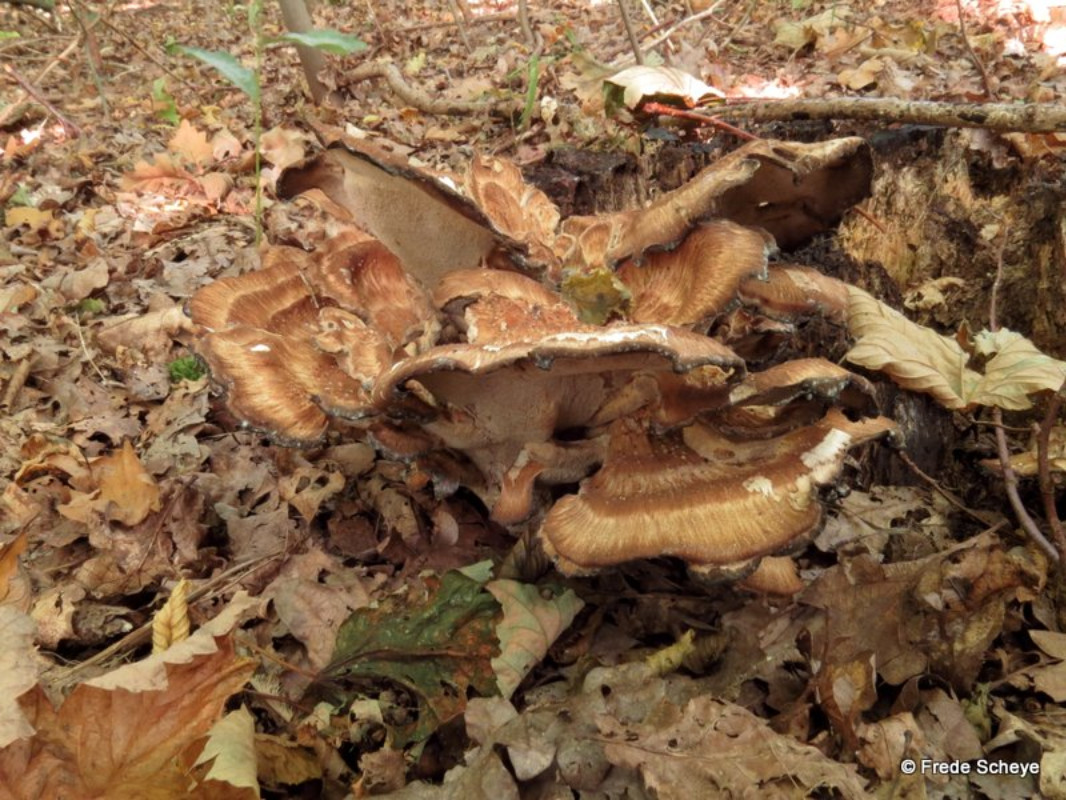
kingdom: Fungi
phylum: Basidiomycota
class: Agaricomycetes
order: Polyporales
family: Meripilaceae
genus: Meripilus
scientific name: Meripilus giganteus
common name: kæmpeporesvamp
